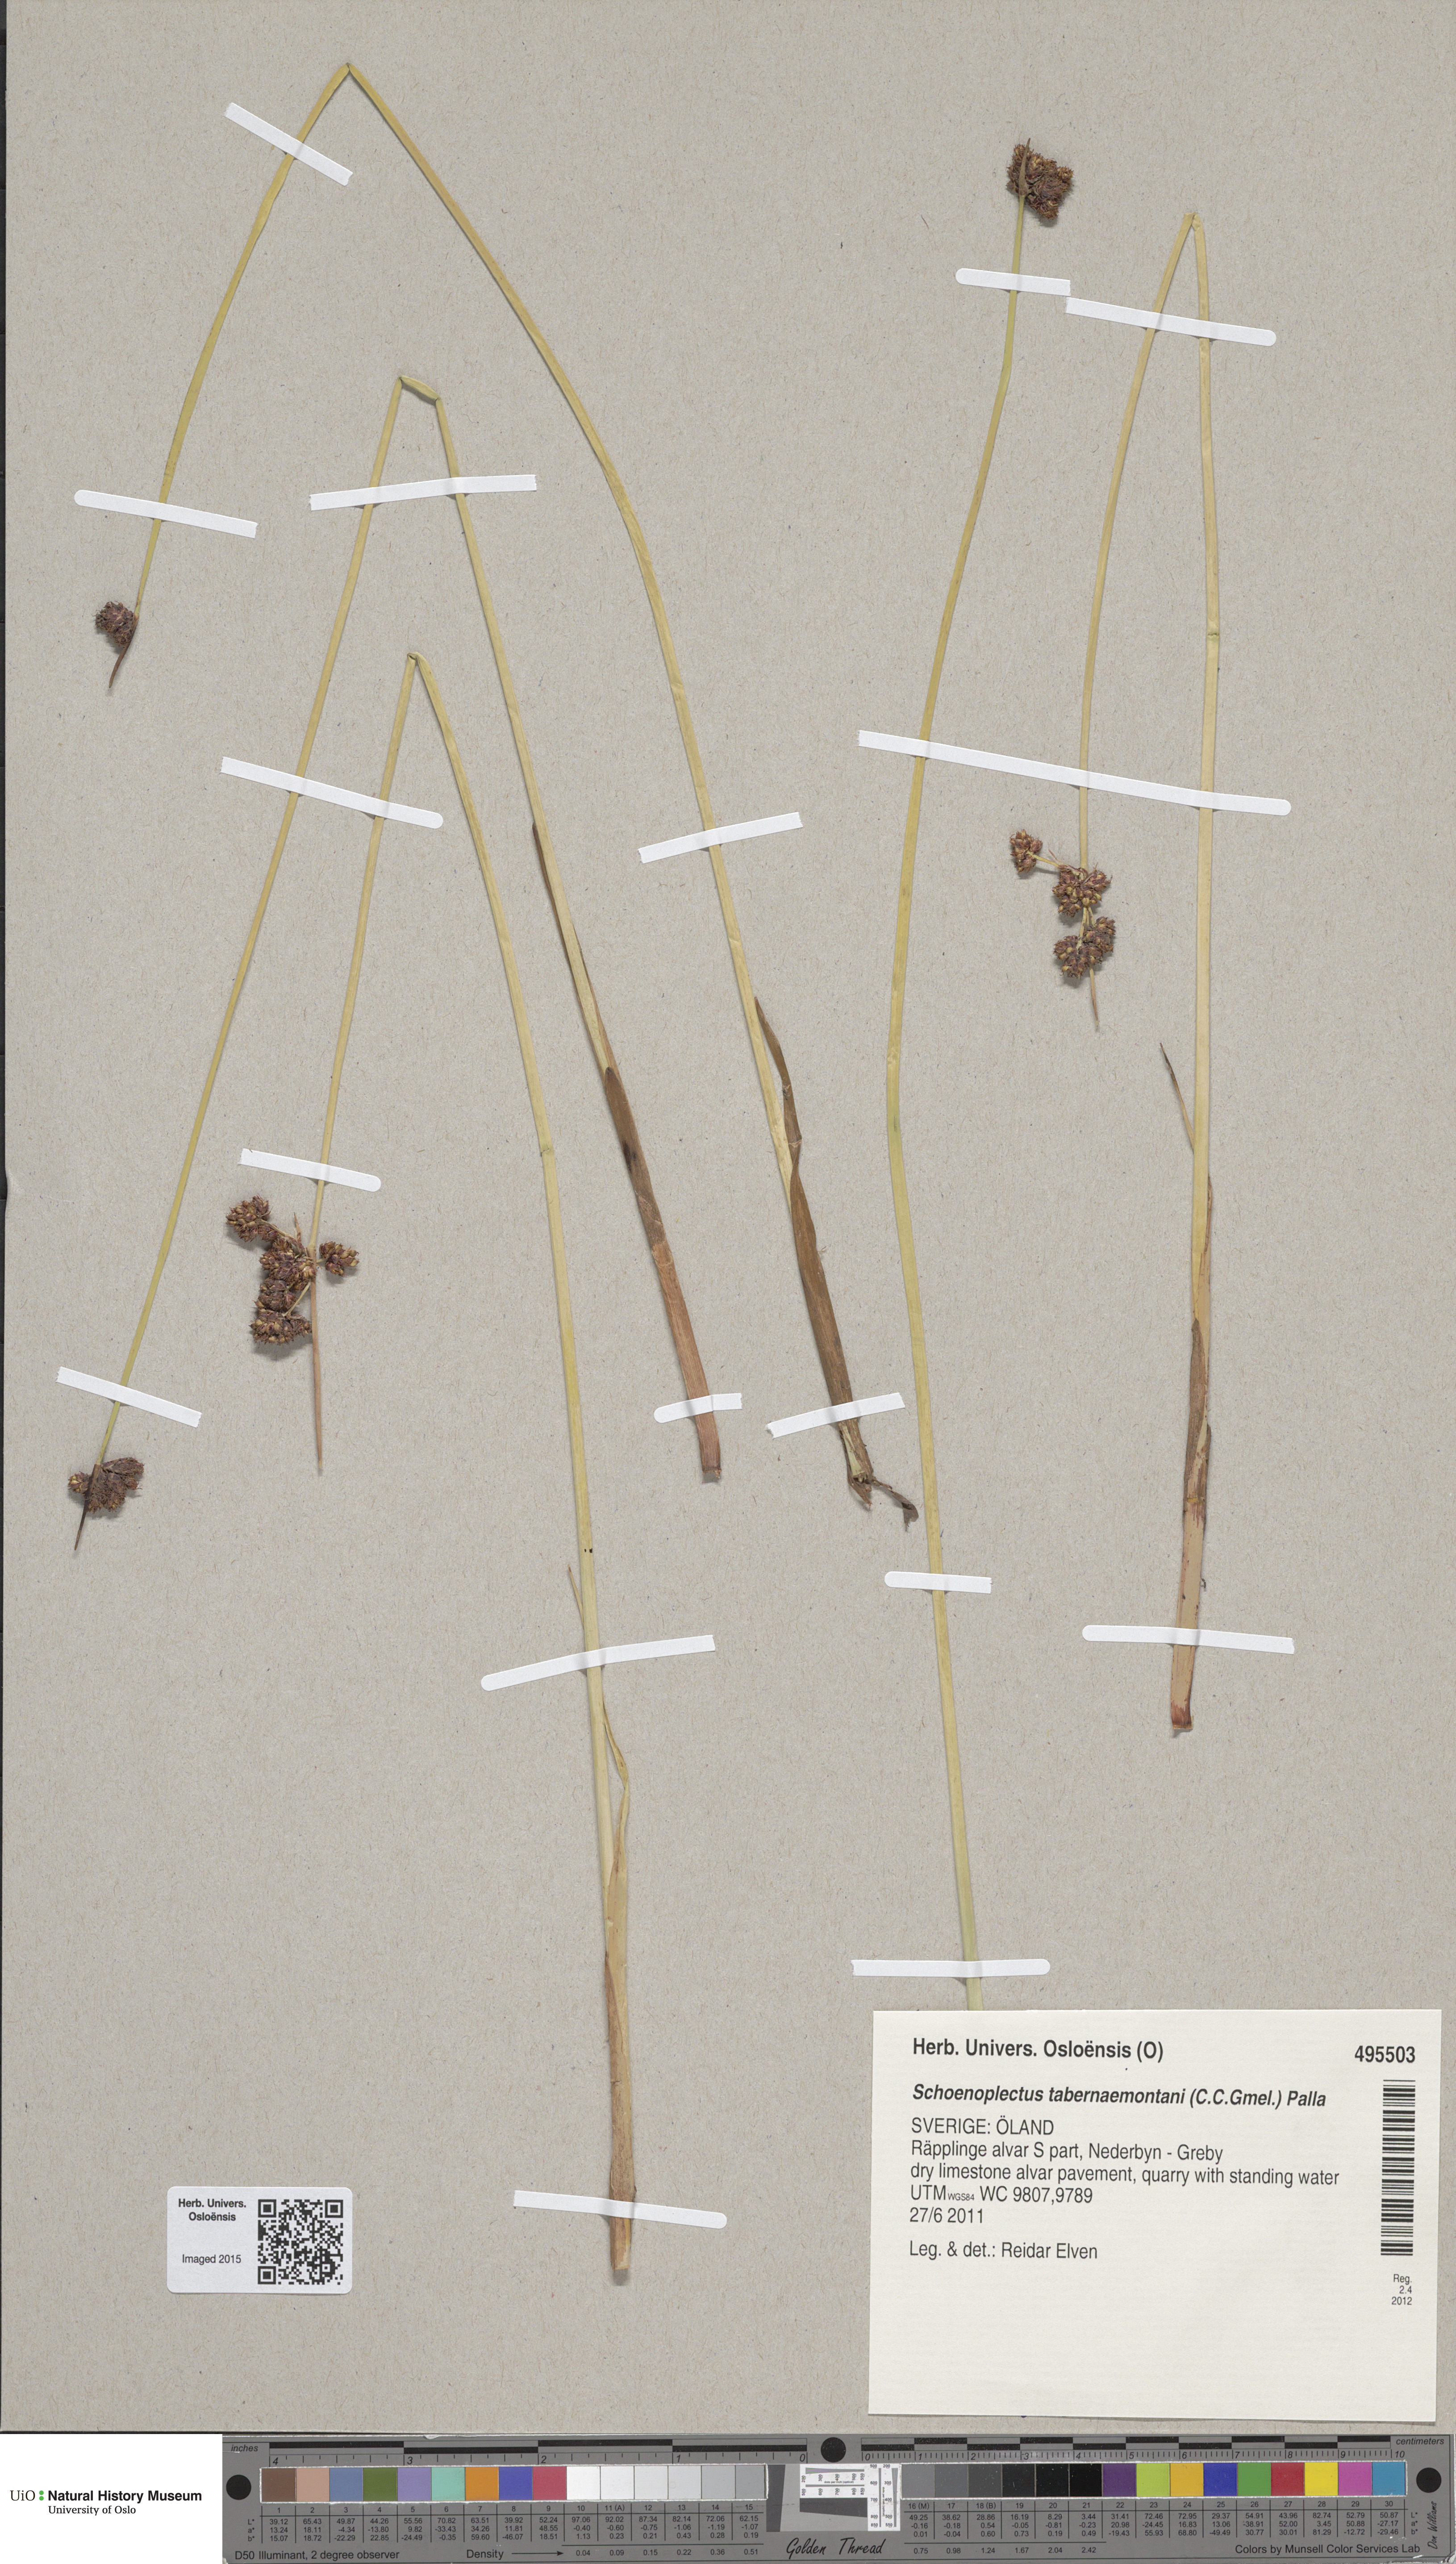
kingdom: Plantae
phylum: Tracheophyta
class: Liliopsida
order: Poales
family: Cyperaceae
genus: Schoenoplectus
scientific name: Schoenoplectus tabernaemontani
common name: Grey club-rush
